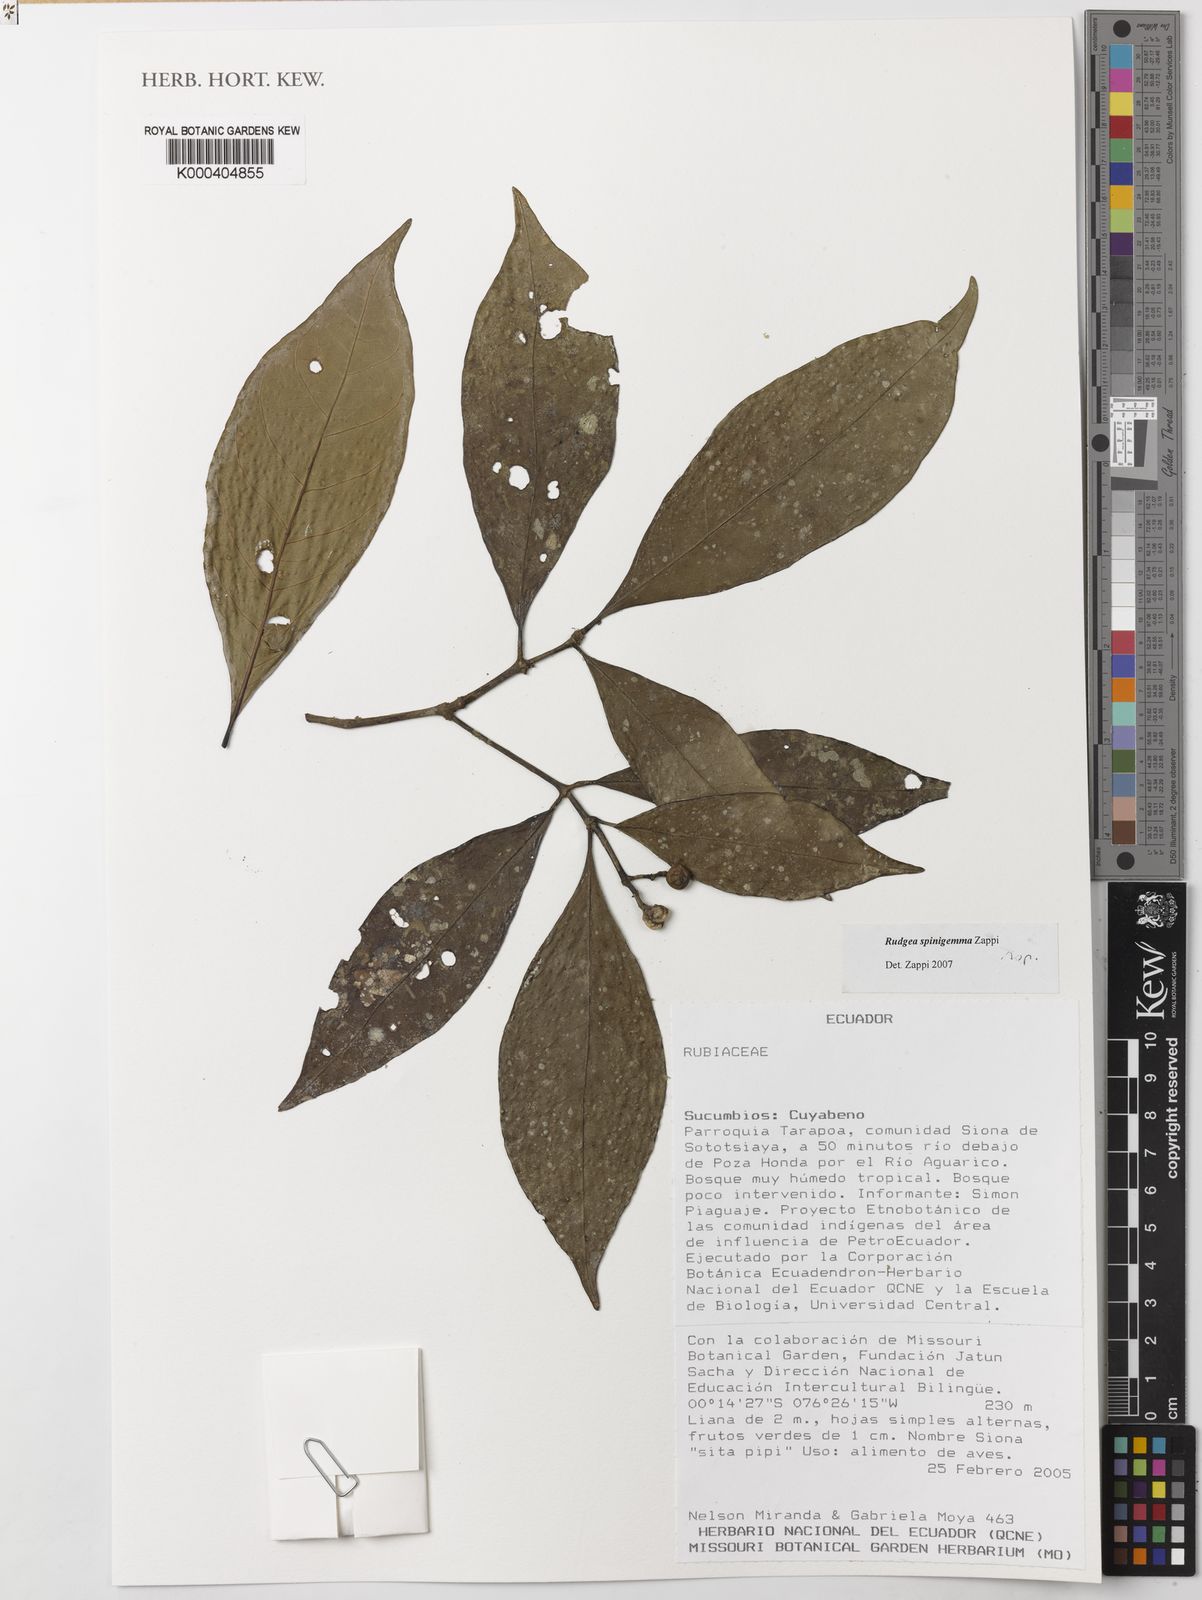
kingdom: Plantae
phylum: Tracheophyta
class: Magnoliopsida
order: Gentianales
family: Rubiaceae
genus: Rudgea
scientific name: Rudgea spinigemma
